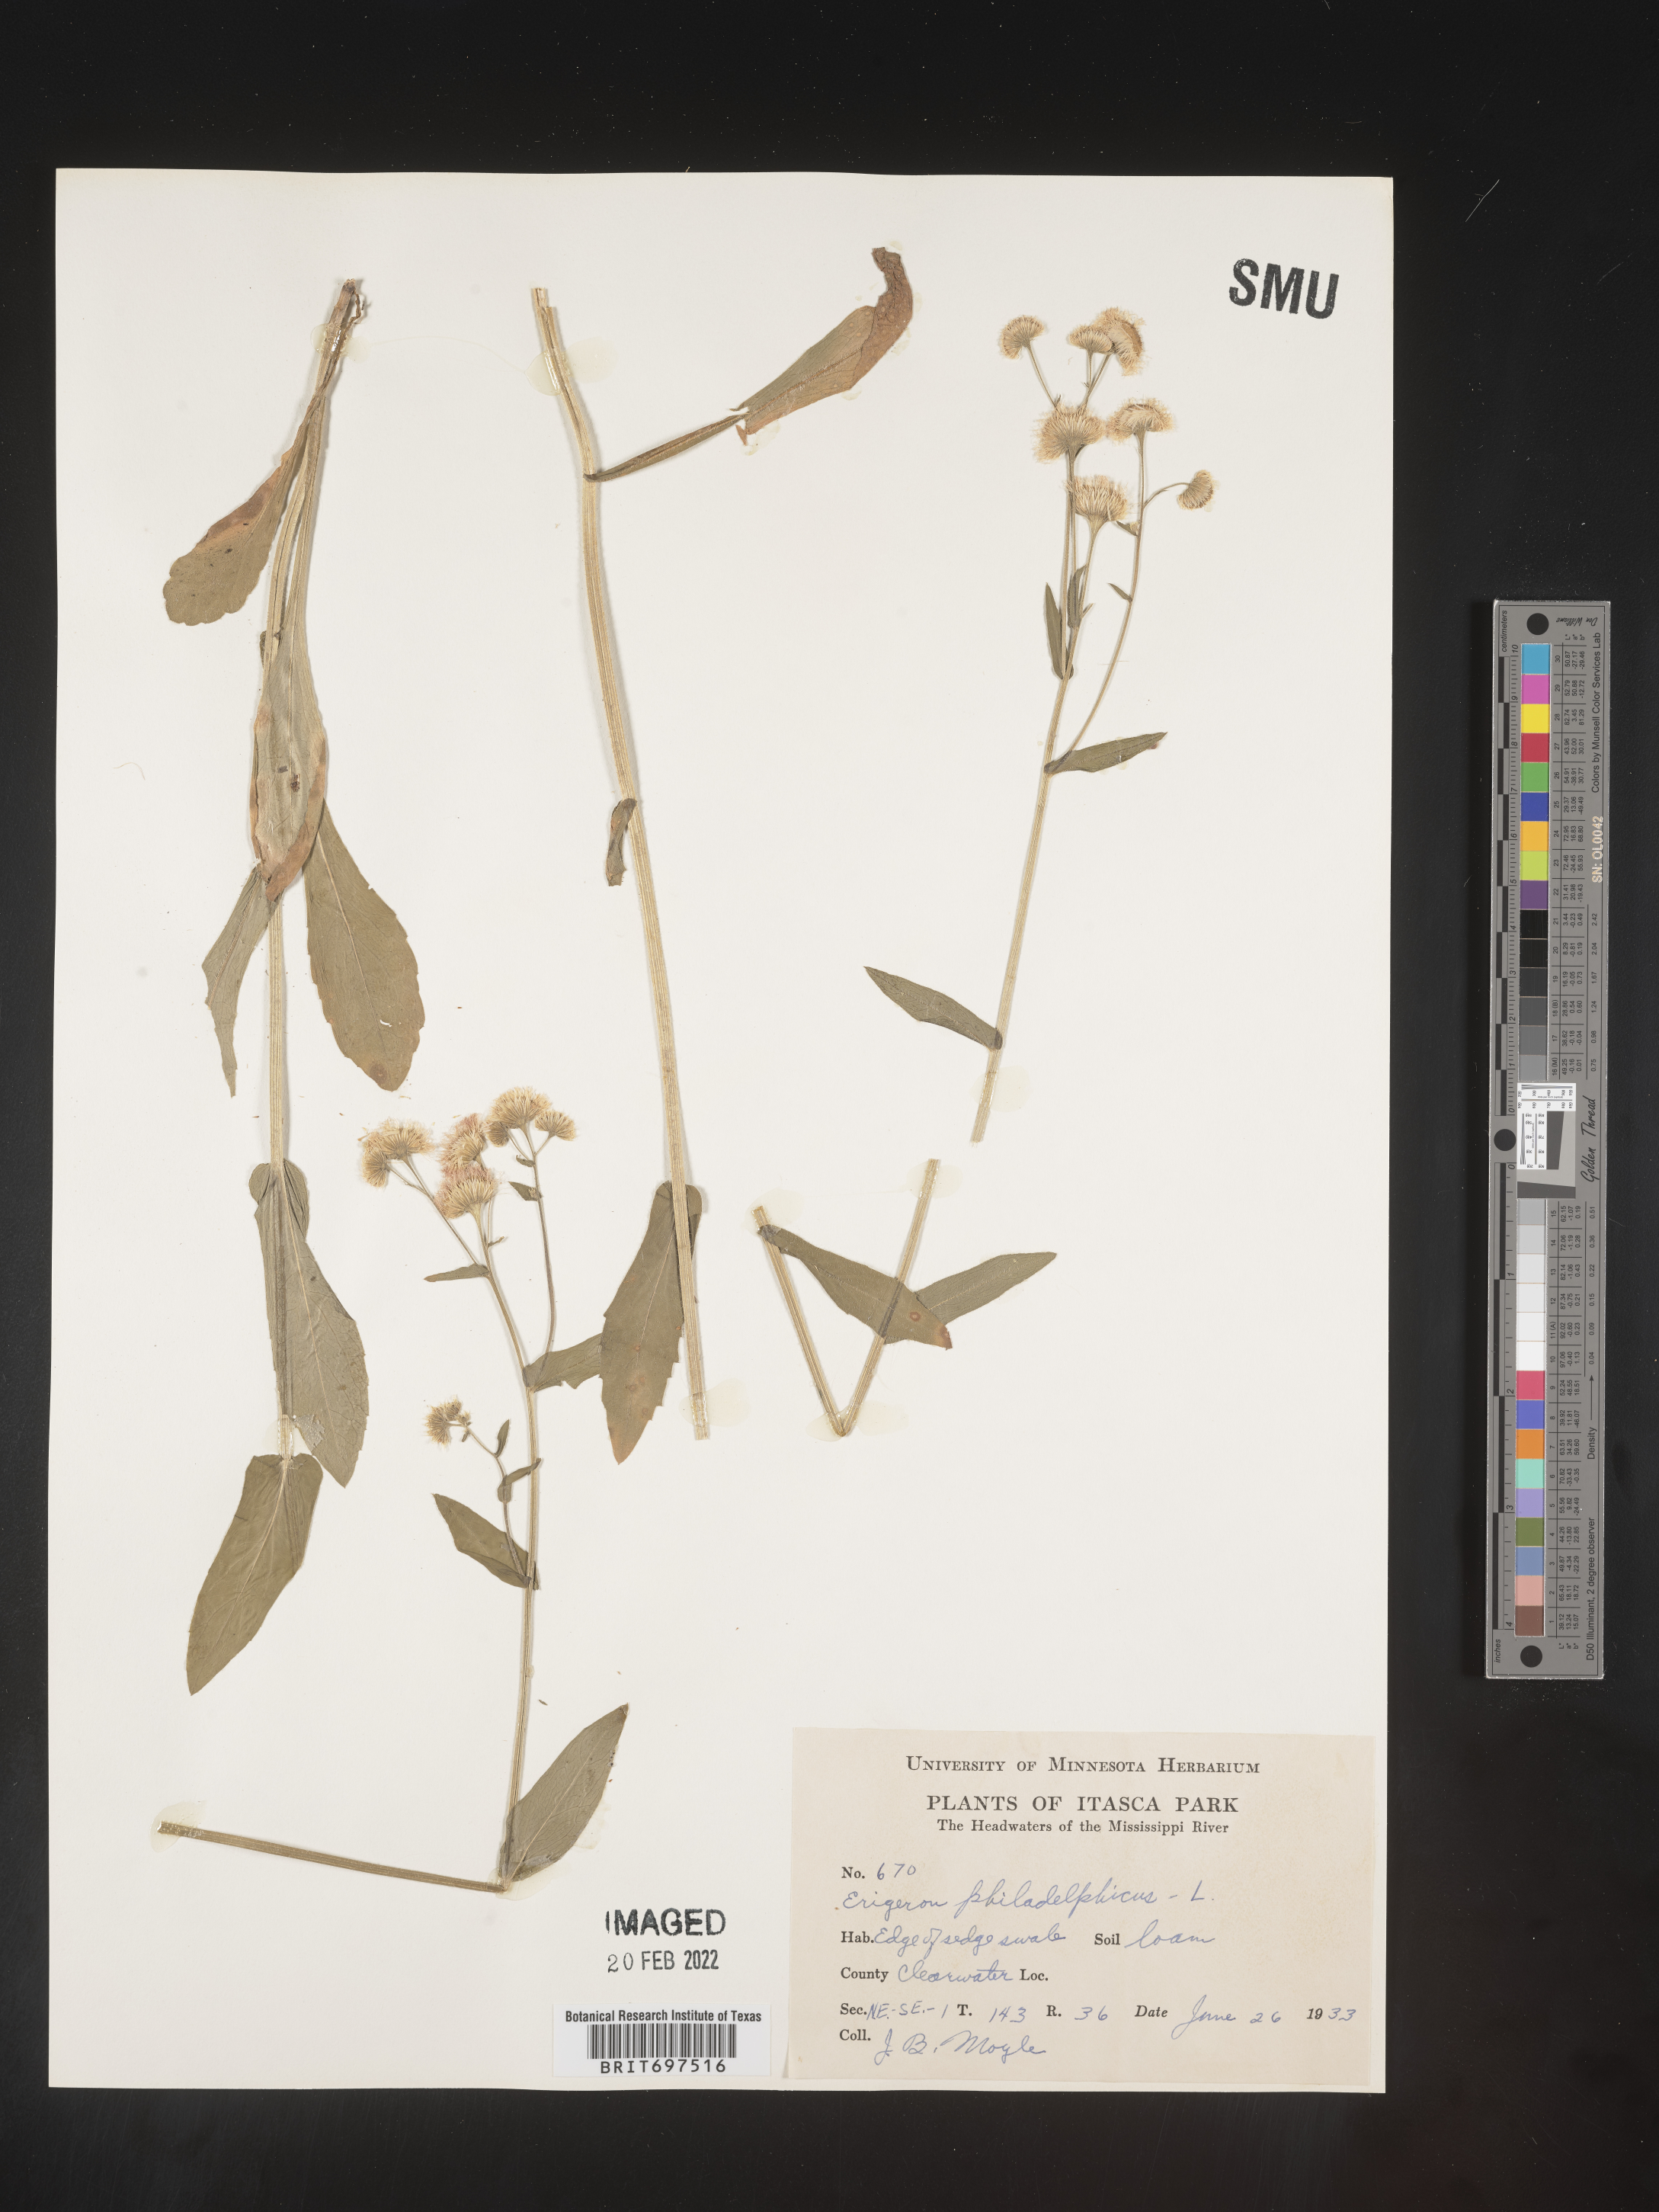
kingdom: Plantae
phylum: Tracheophyta
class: Magnoliopsida
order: Asterales
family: Asteraceae
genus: Erigeron
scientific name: Erigeron philadelphicus
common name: Robin's-plantain
